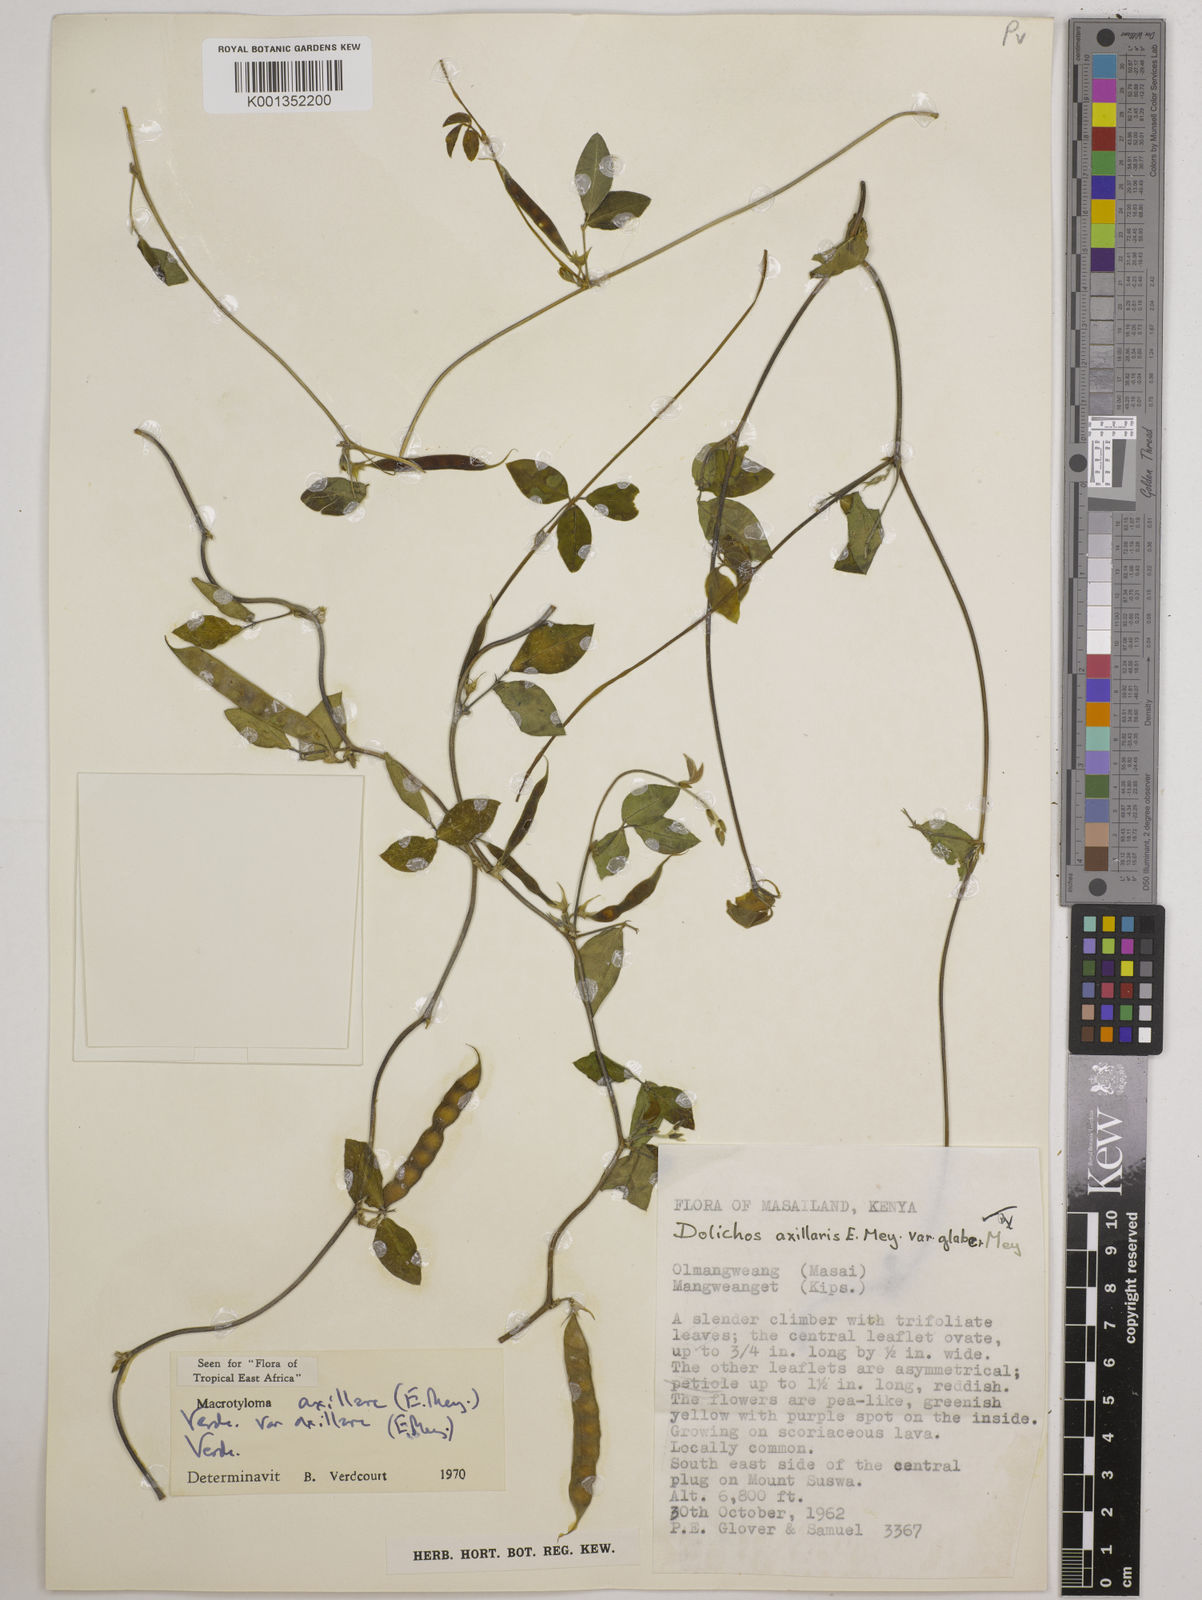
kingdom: Plantae
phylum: Tracheophyta
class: Magnoliopsida
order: Fabales
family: Fabaceae
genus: Macrotyloma
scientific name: Macrotyloma
